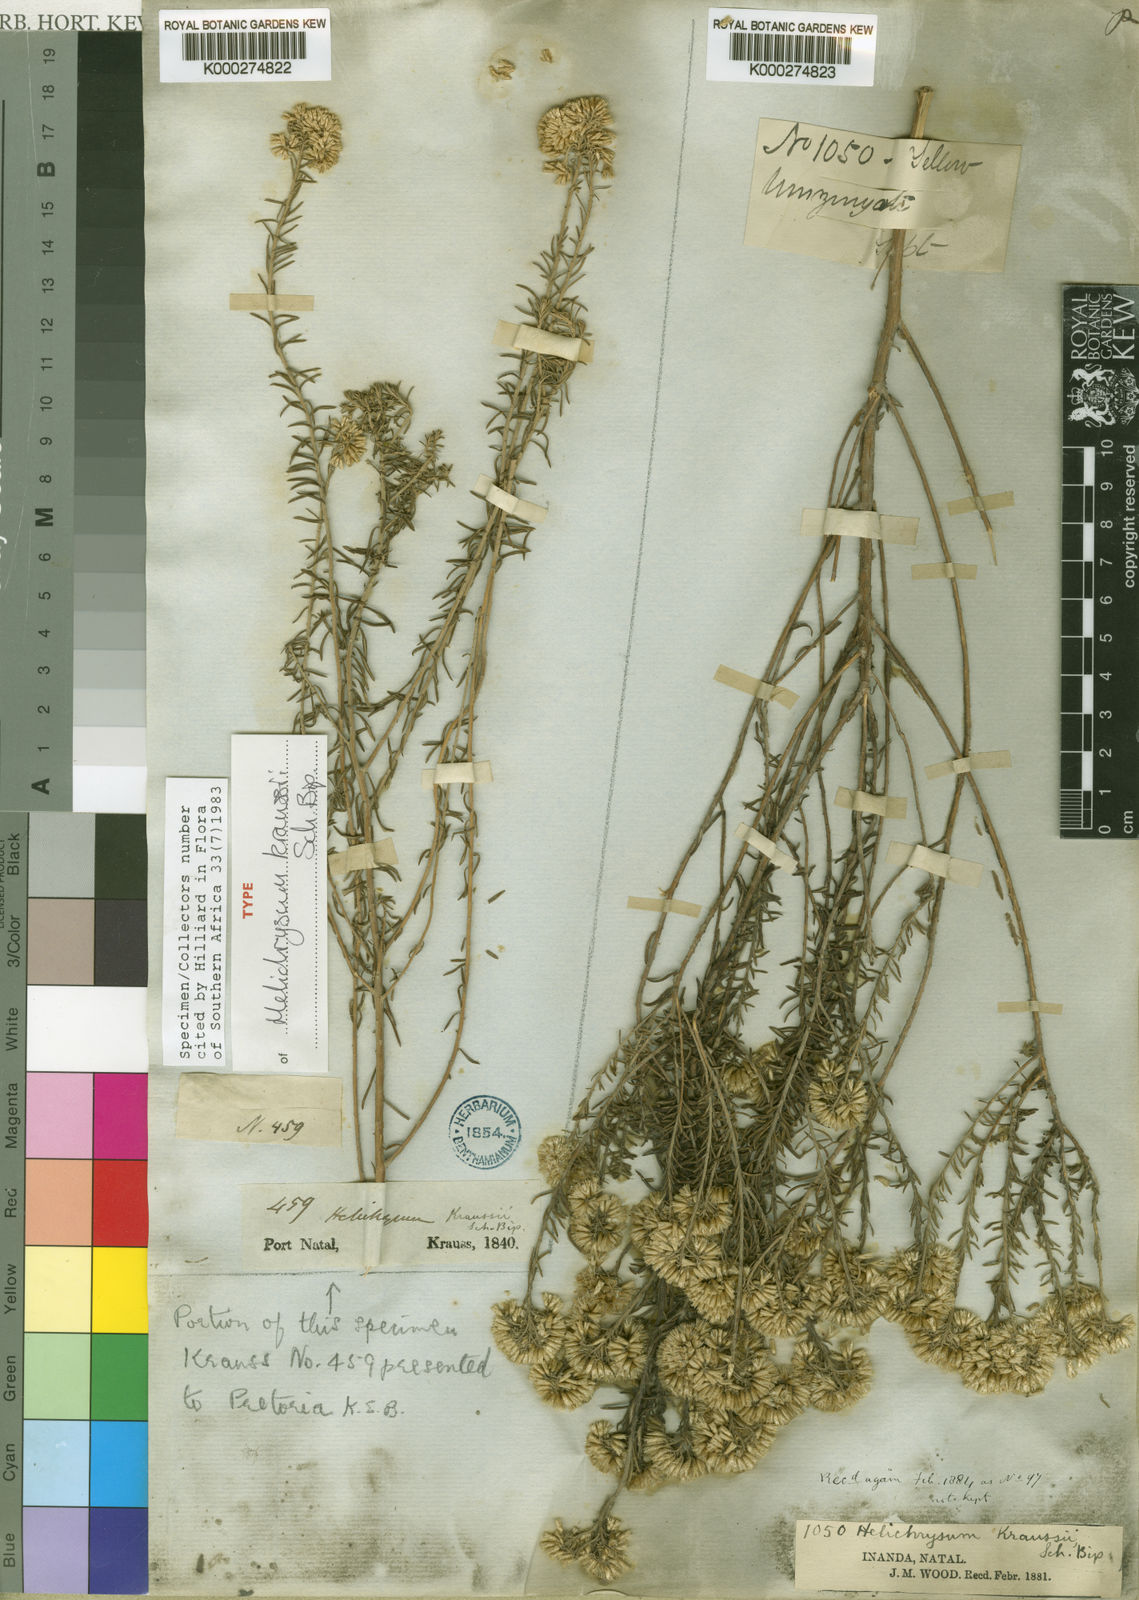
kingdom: Plantae
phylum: Tracheophyta
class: Magnoliopsida
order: Asterales
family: Asteraceae
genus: Helichrysum
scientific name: Helichrysum kraussii
